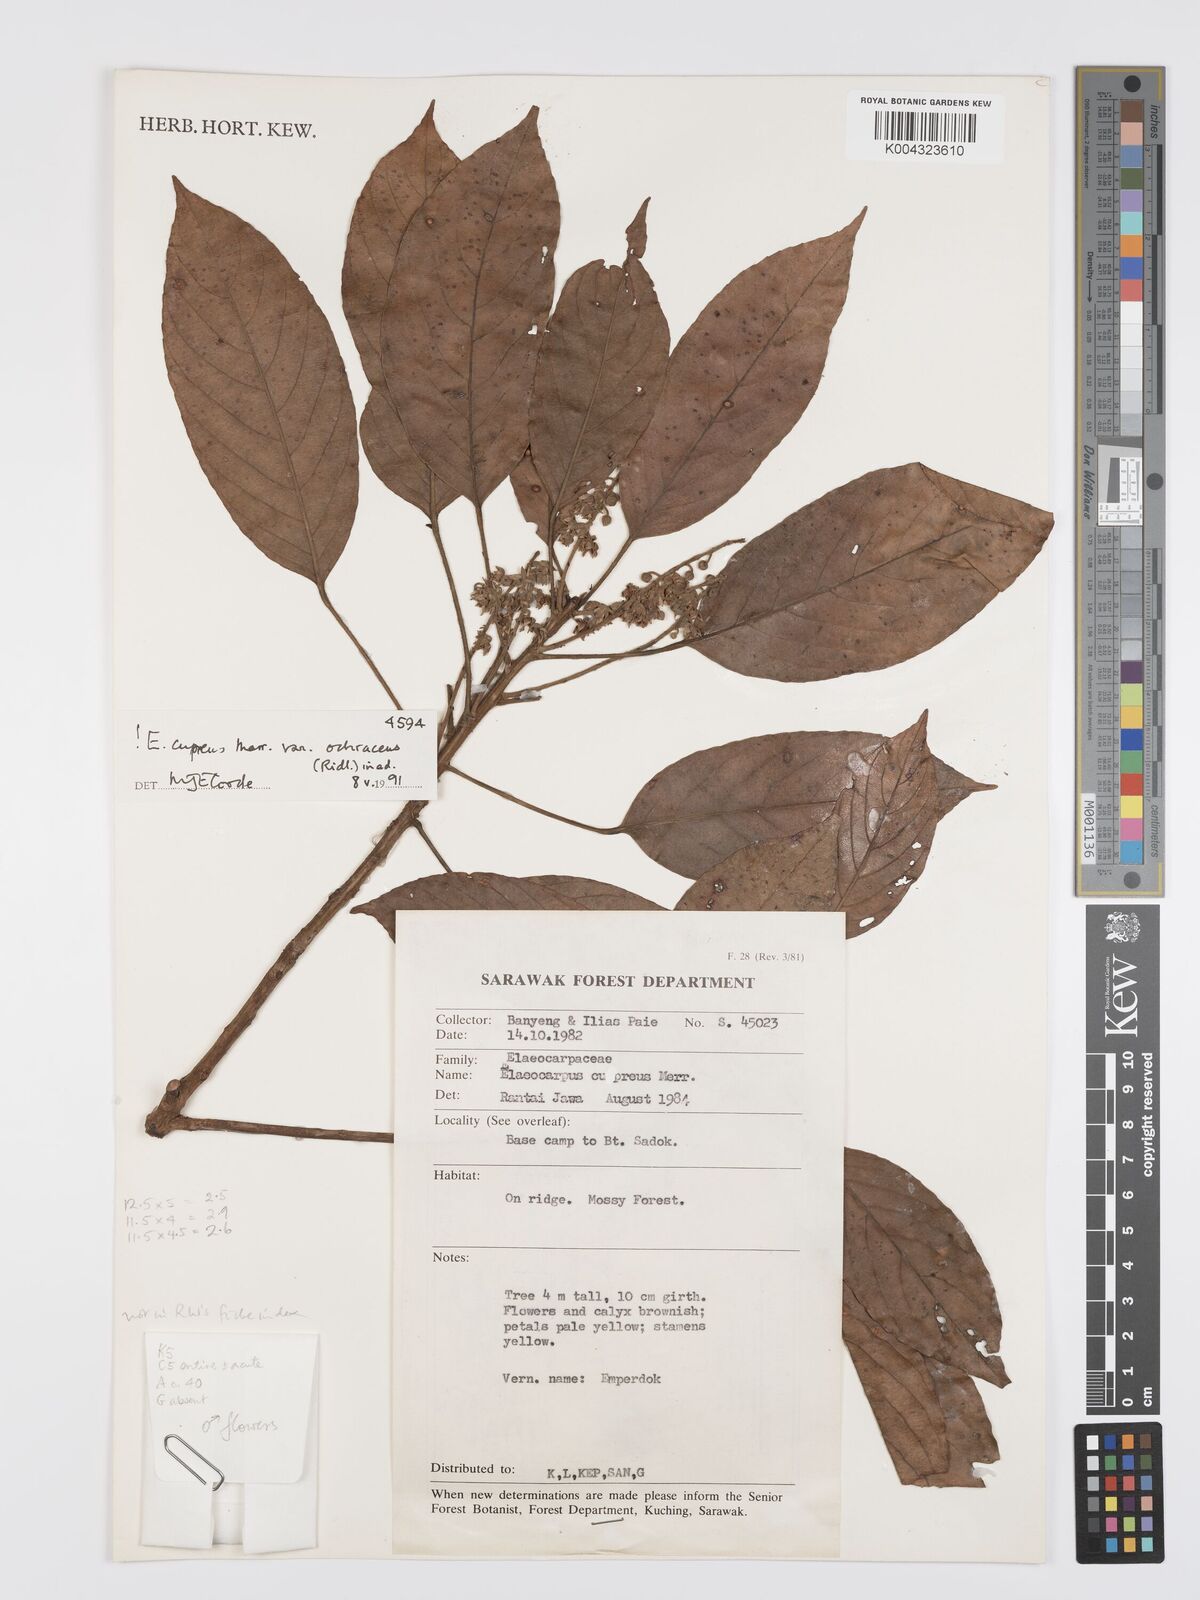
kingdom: Plantae
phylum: Tracheophyta
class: Magnoliopsida
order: Oxalidales
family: Elaeocarpaceae
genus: Elaeocarpus
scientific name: Elaeocarpus cupreus
